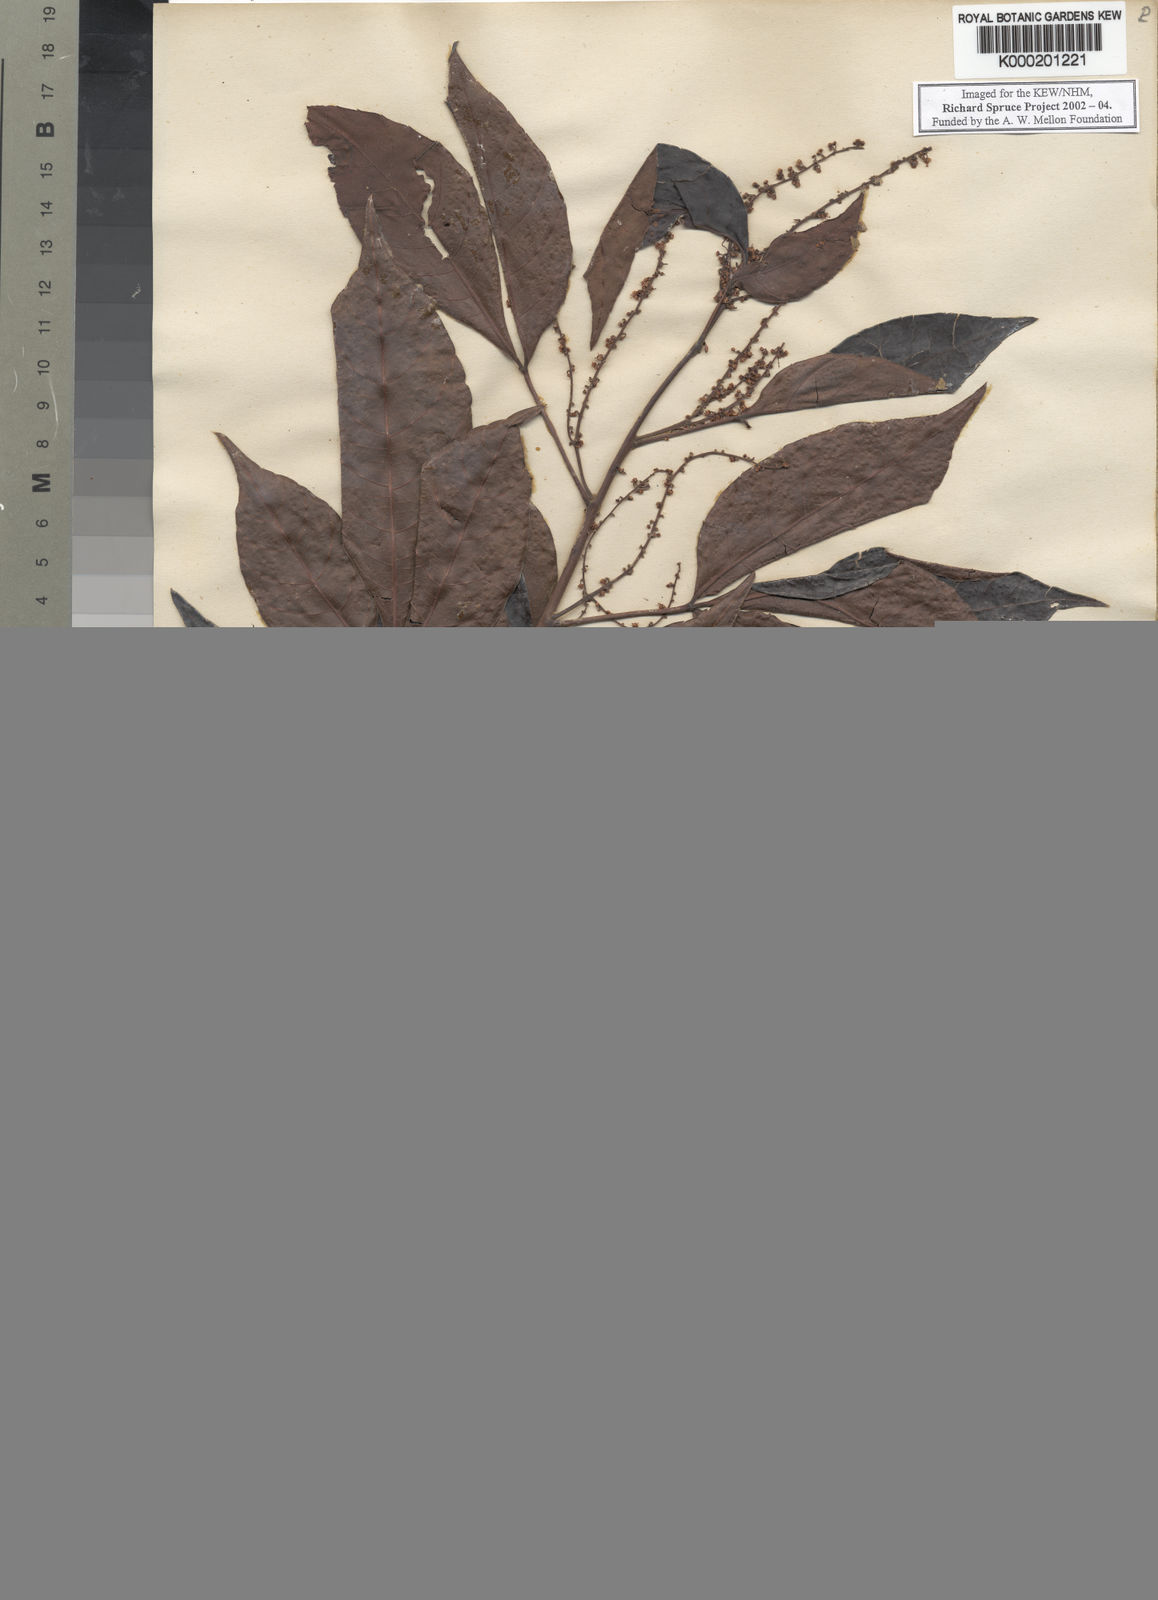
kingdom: Plantae
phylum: Tracheophyta
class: Magnoliopsida
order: Sapindales
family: Sapindaceae
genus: Allophylus
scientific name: Allophylus floribundus
